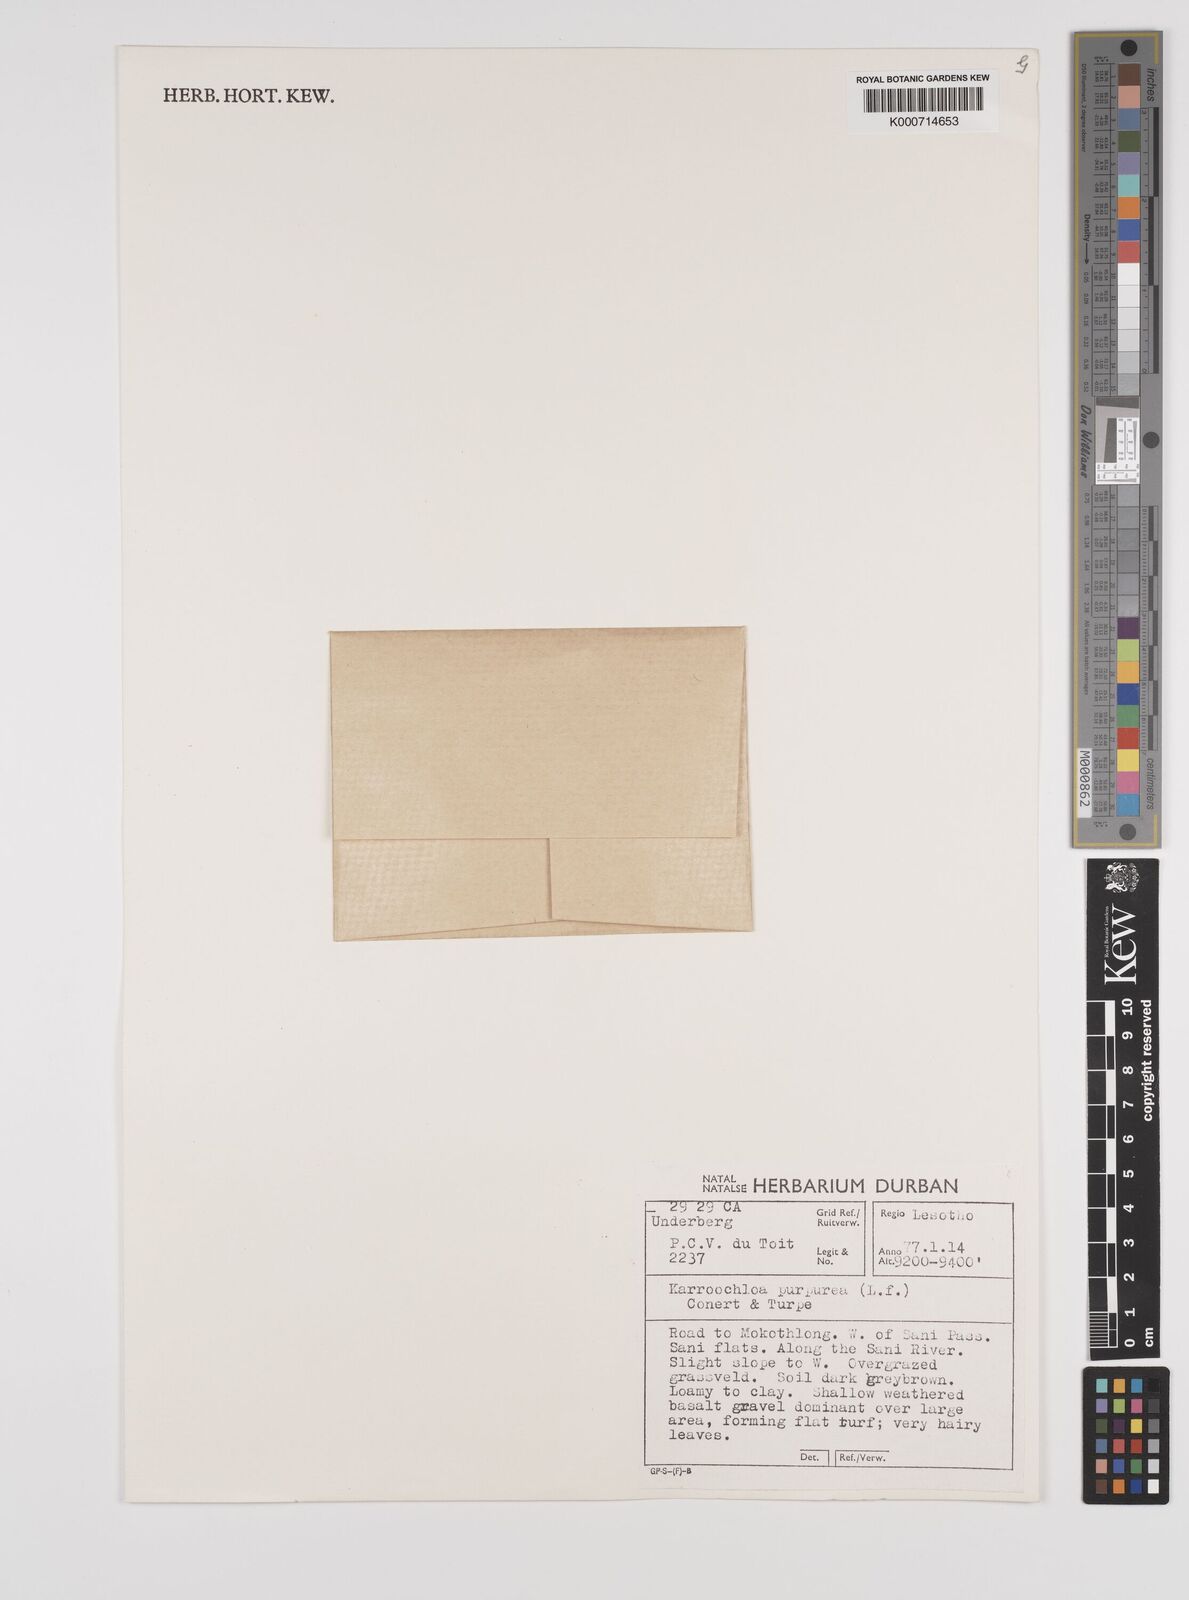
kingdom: Plantae
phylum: Tracheophyta
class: Liliopsida
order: Poales
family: Poaceae
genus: Rytidosperma
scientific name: Rytidosperma
